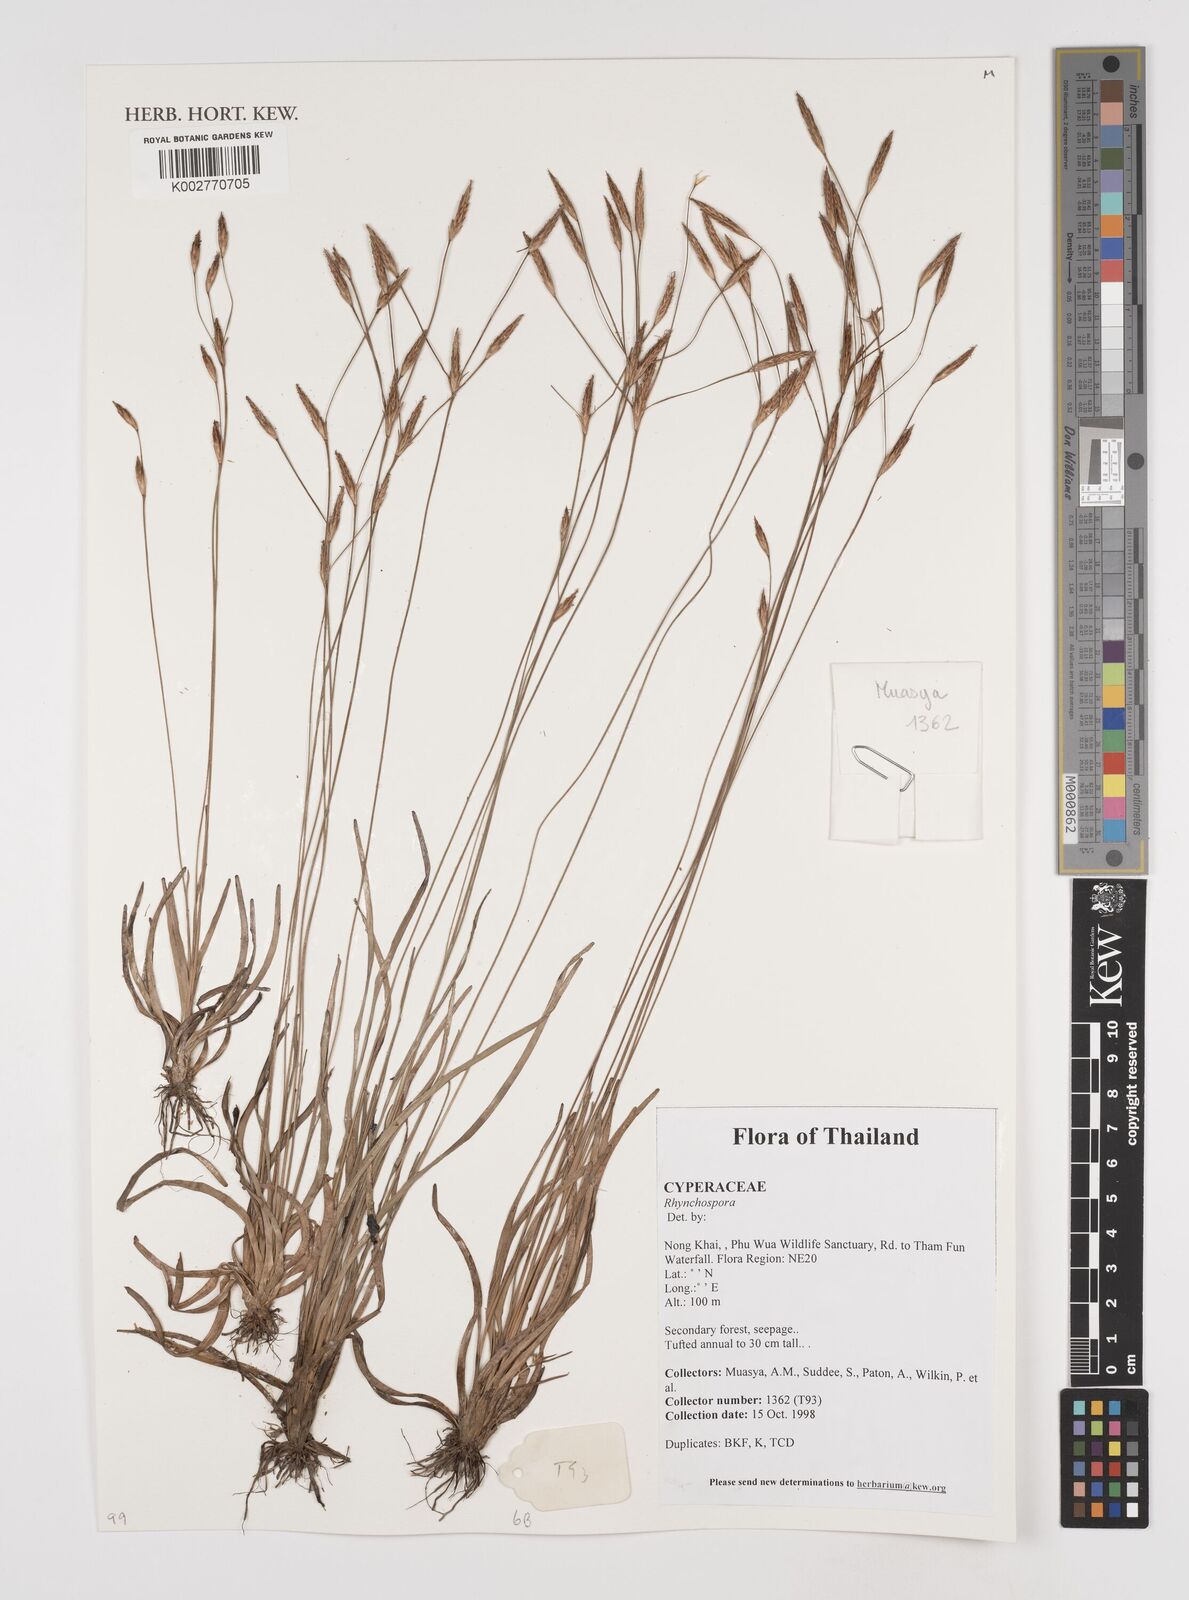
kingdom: Plantae
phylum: Tracheophyta
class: Liliopsida
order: Poales
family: Cyperaceae
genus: Rhynchospora
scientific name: Rhynchospora
